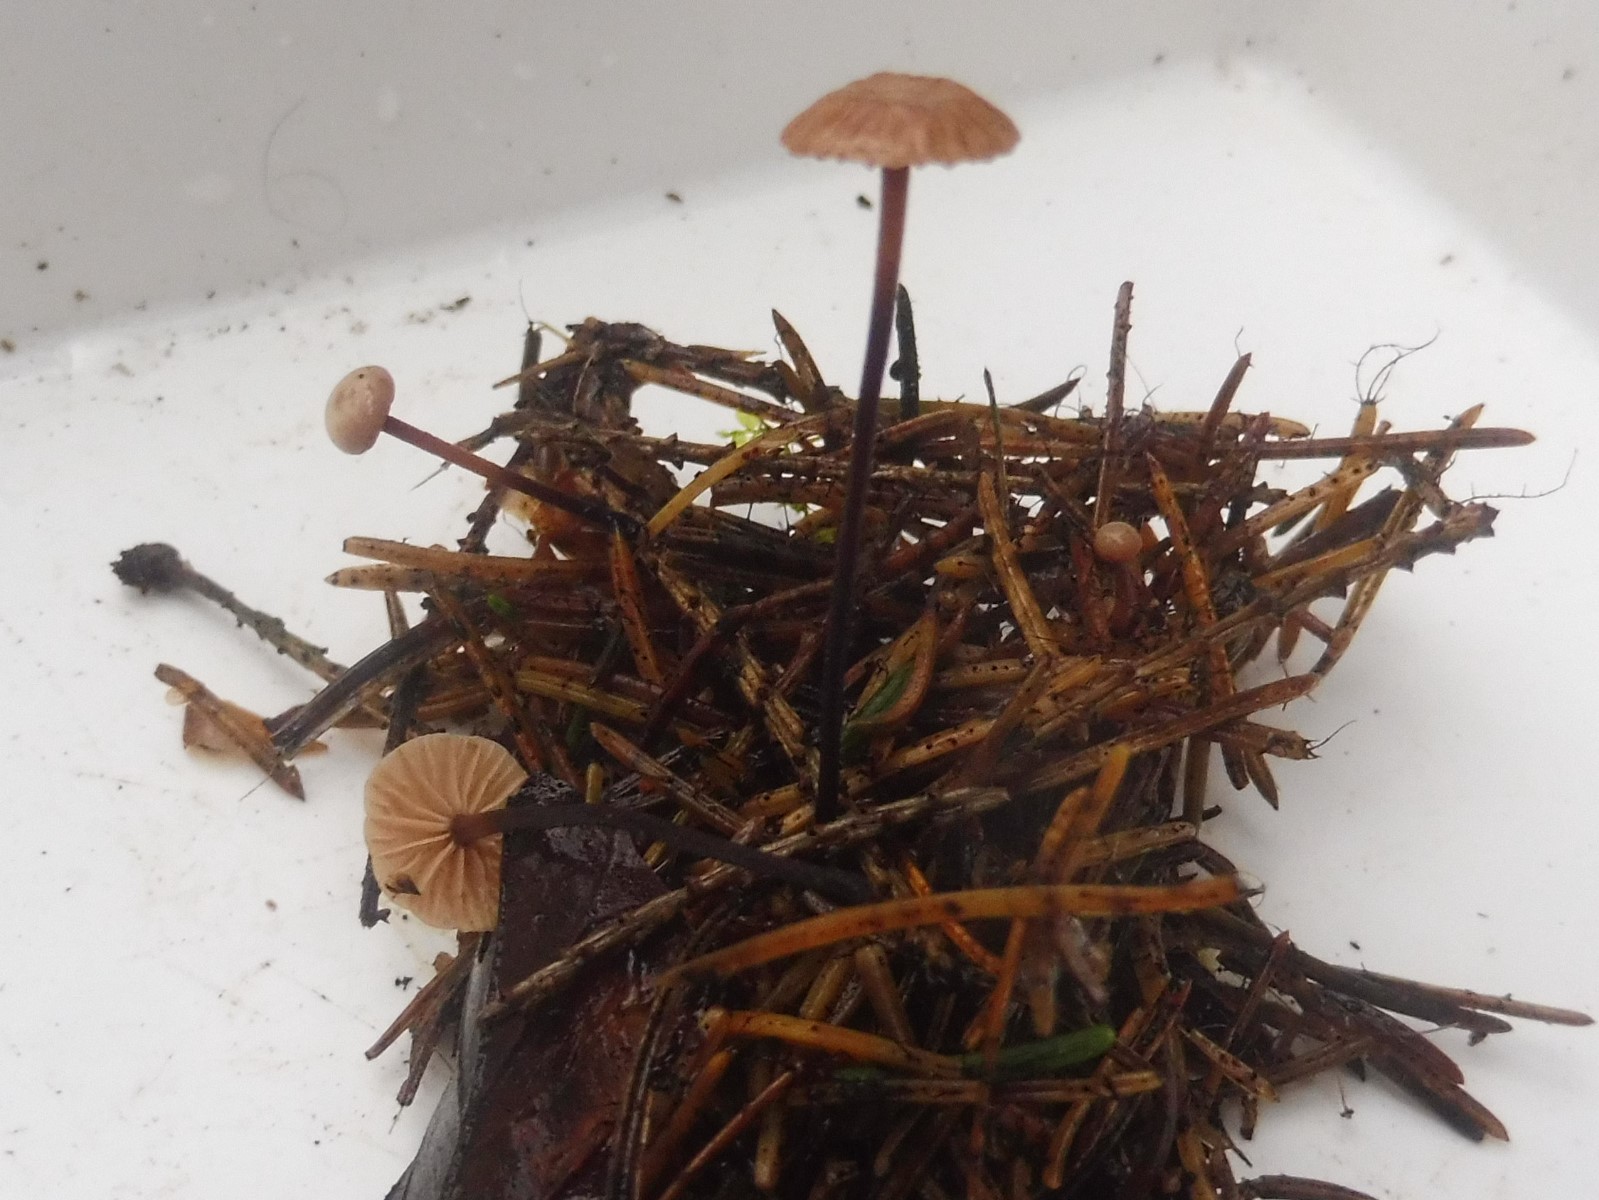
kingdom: Fungi
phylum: Basidiomycota
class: Agaricomycetes
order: Agaricales
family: Omphalotaceae
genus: Paragymnopus
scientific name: Paragymnopus perforans
